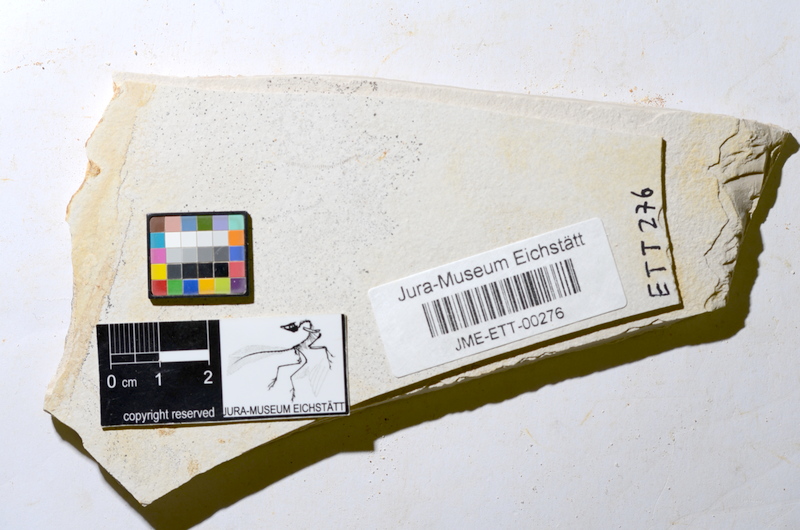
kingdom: Animalia
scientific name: Animalia
